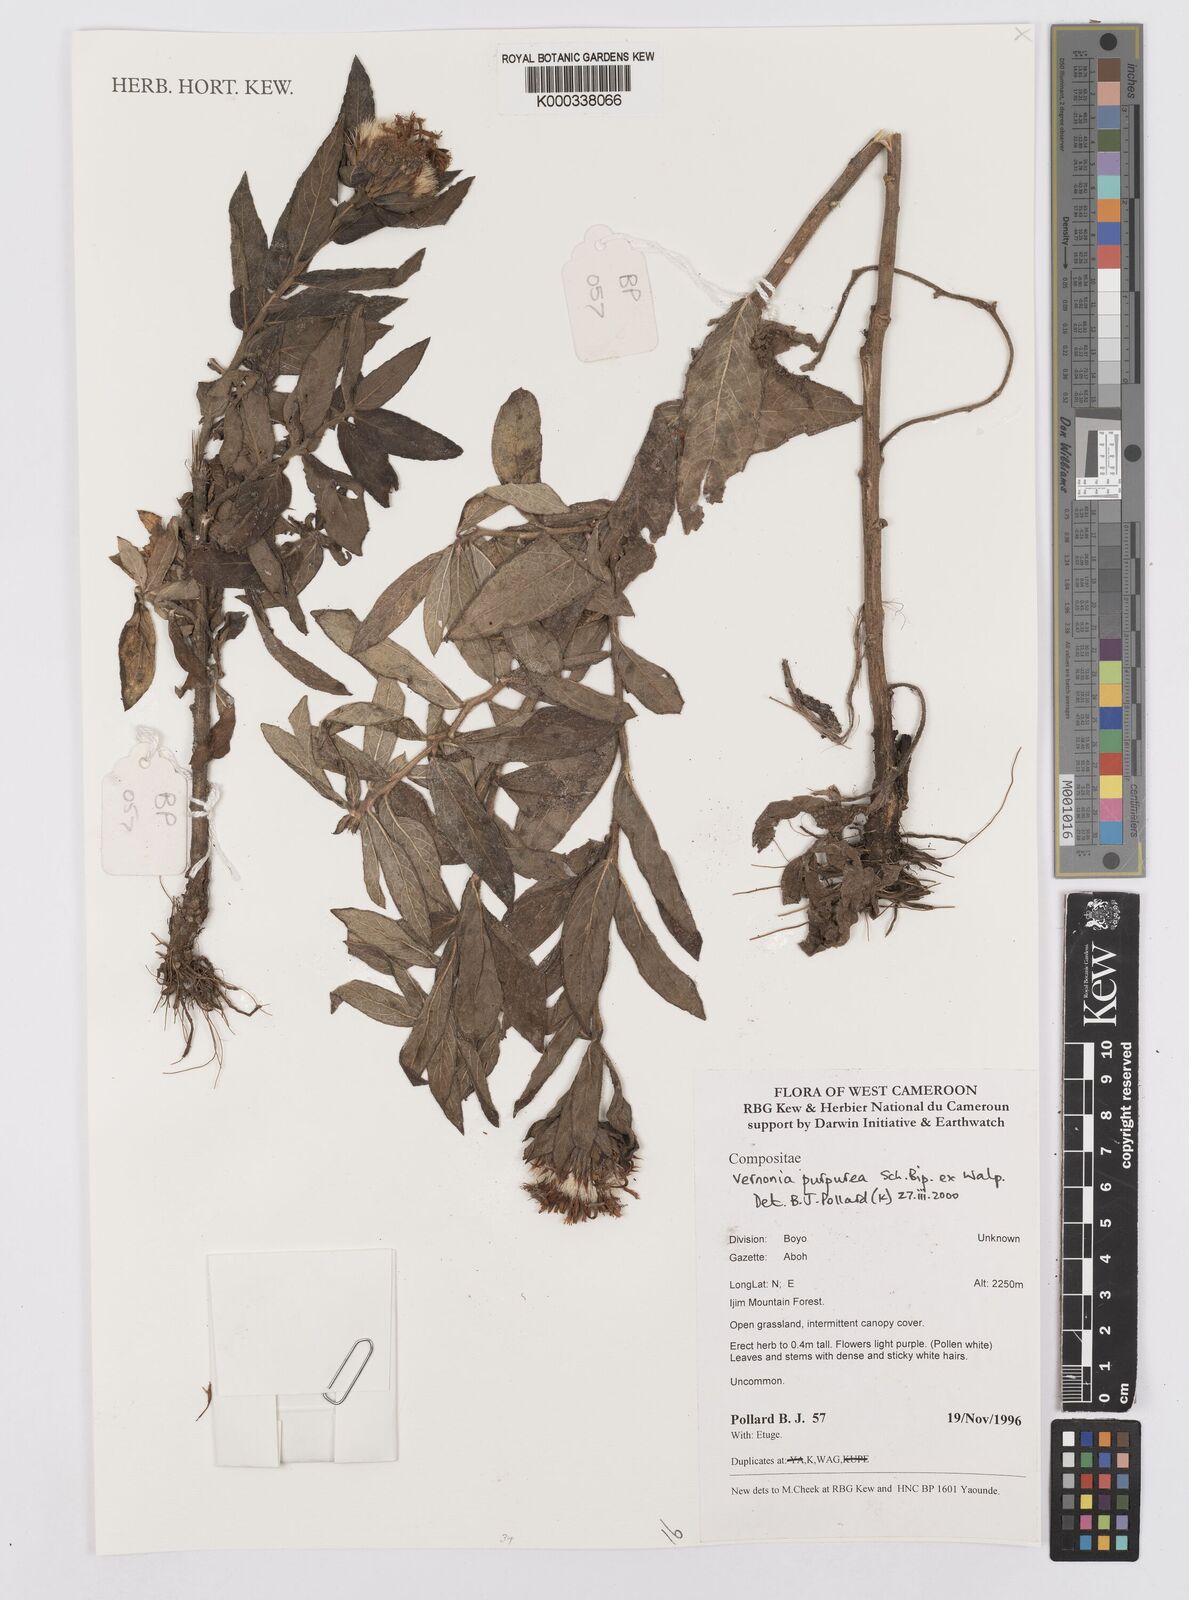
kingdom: Plantae
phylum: Tracheophyta
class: Magnoliopsida
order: Asterales
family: Asteraceae
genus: Vernonia
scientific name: Vernonia
